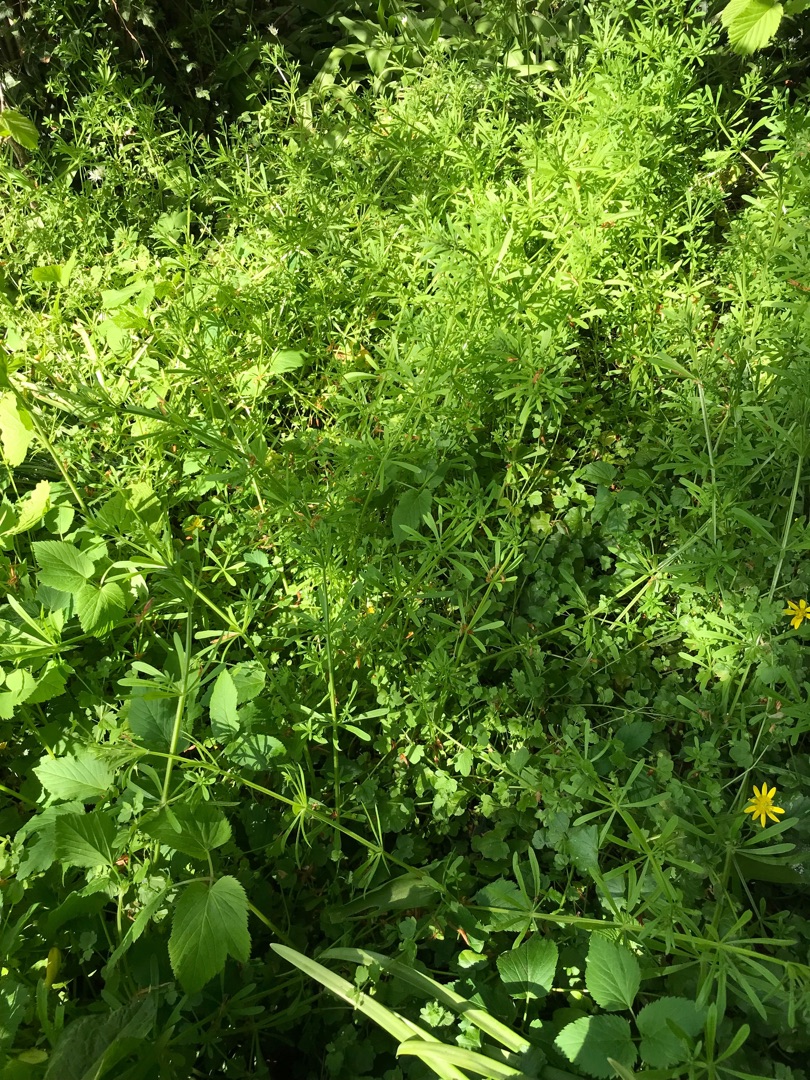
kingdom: Plantae
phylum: Tracheophyta
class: Magnoliopsida
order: Gentianales
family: Rubiaceae
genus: Galium
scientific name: Galium aparine
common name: Burre-snerre
